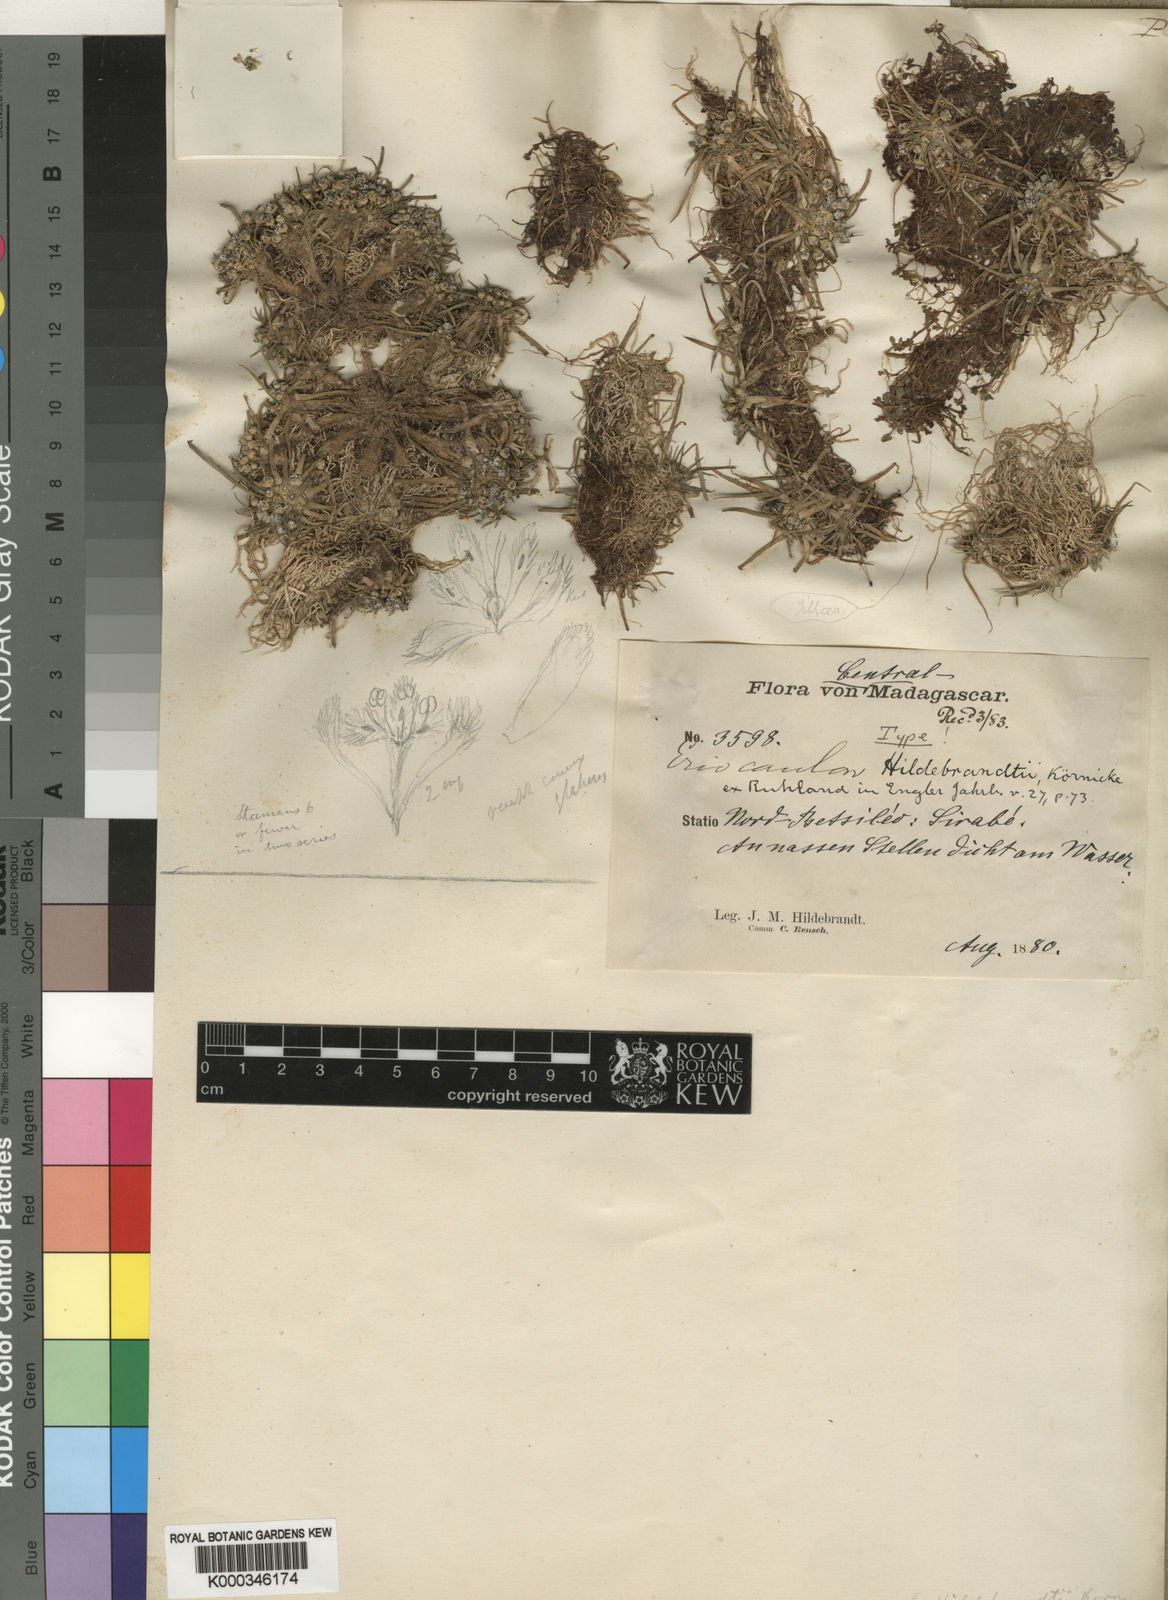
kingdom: Plantae
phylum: Tracheophyta
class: Liliopsida
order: Poales
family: Eriocaulaceae
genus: Eriocaulon
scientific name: Eriocaulon hildebrandtii
